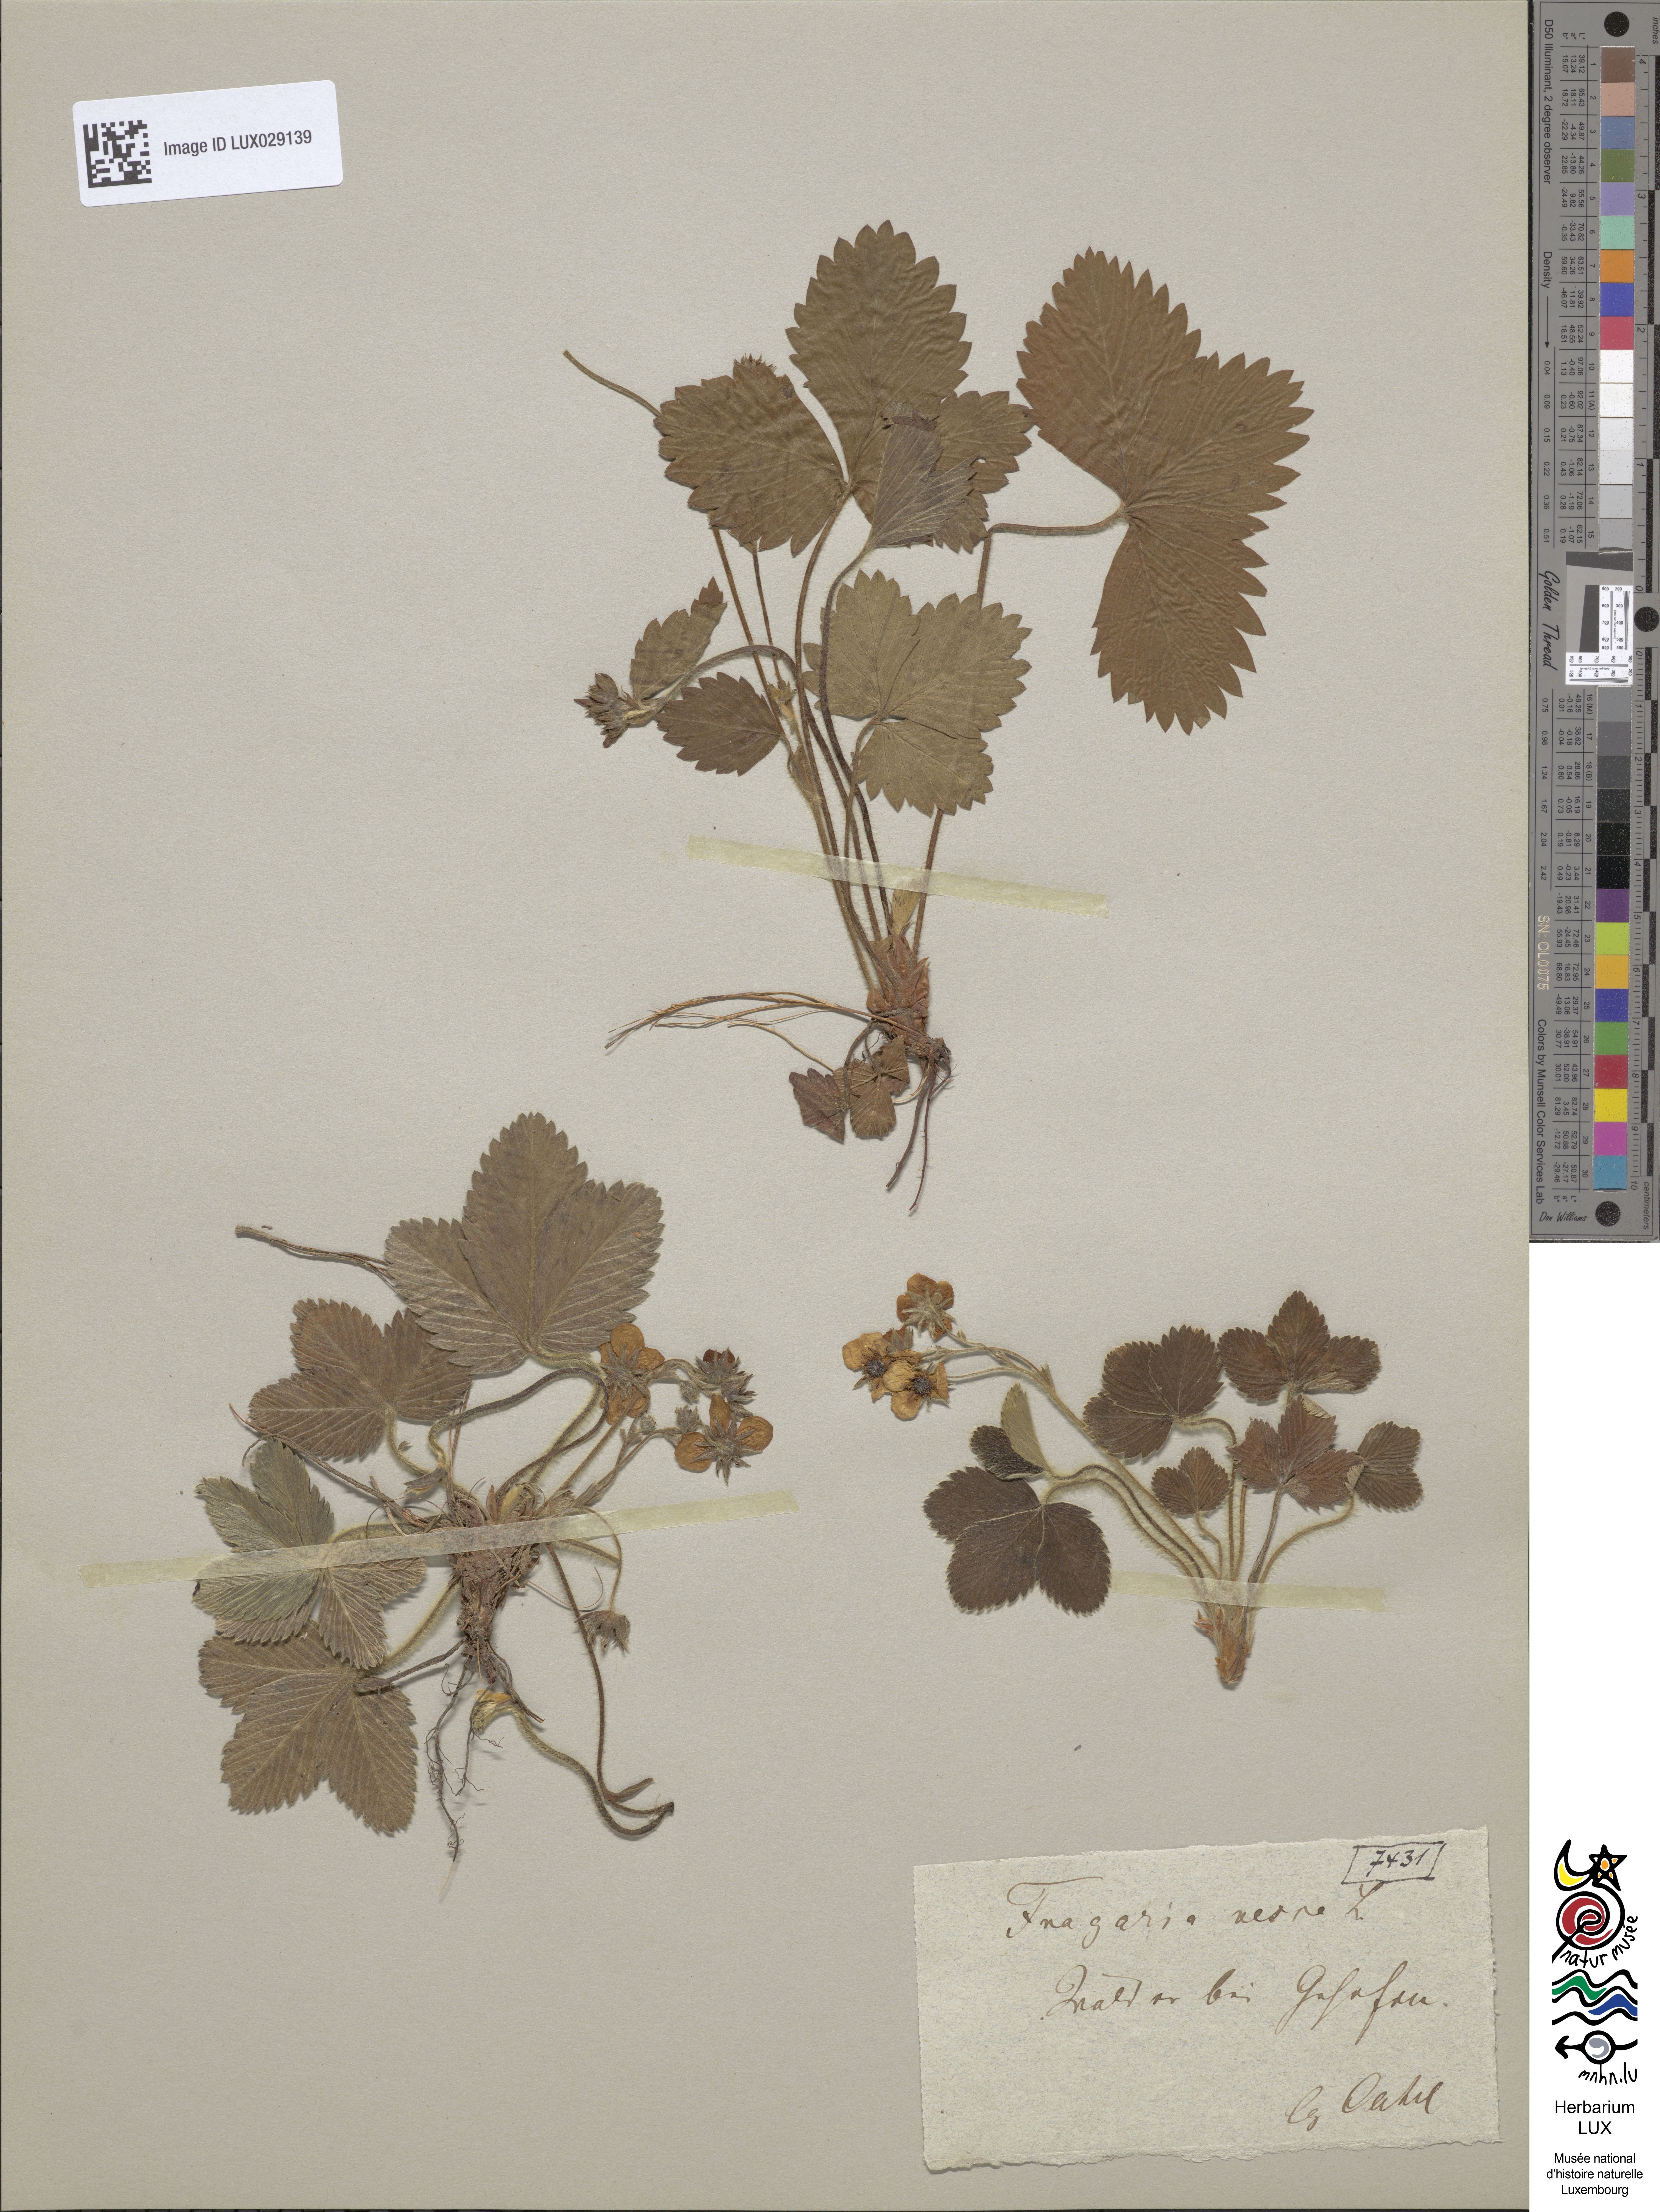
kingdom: Plantae
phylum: Tracheophyta
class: Magnoliopsida
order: Rosales
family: Rosaceae
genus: Fragaria
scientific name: Fragaria vesca
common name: Wild strawberry
